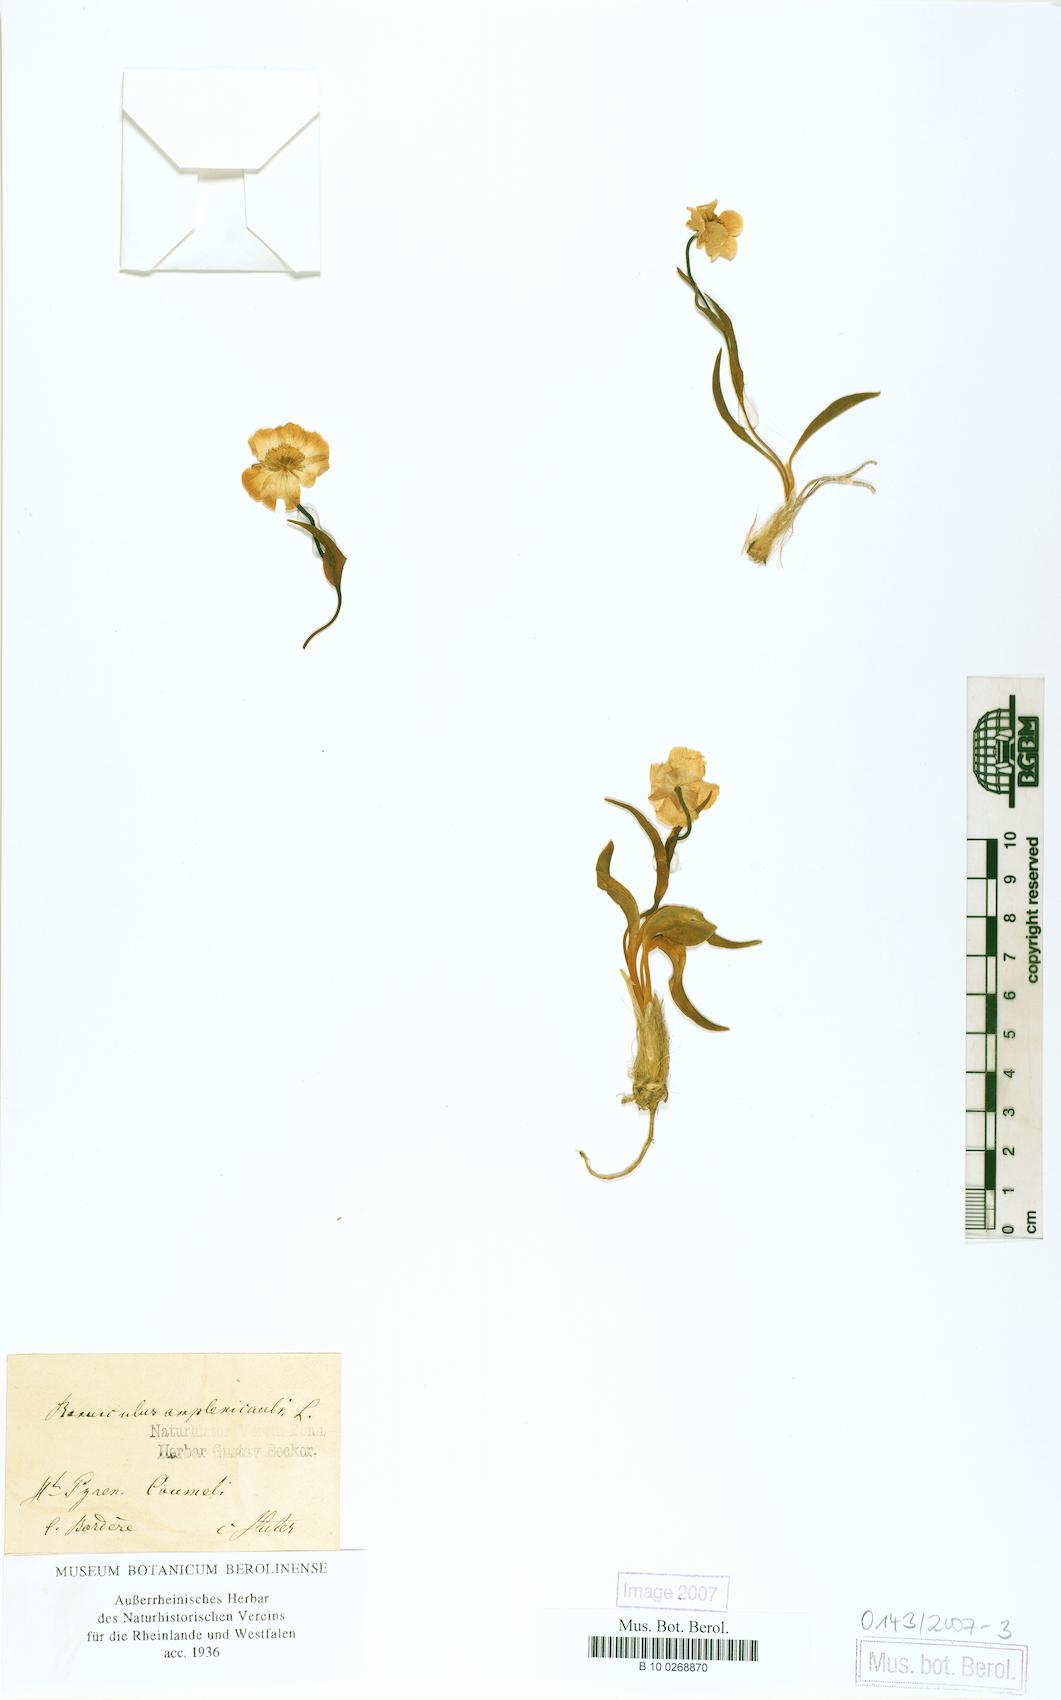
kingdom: Plantae
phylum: Tracheophyta
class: Magnoliopsida
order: Ranunculales
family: Ranunculaceae
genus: Ranunculus
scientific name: Ranunculus amplexicaulis
